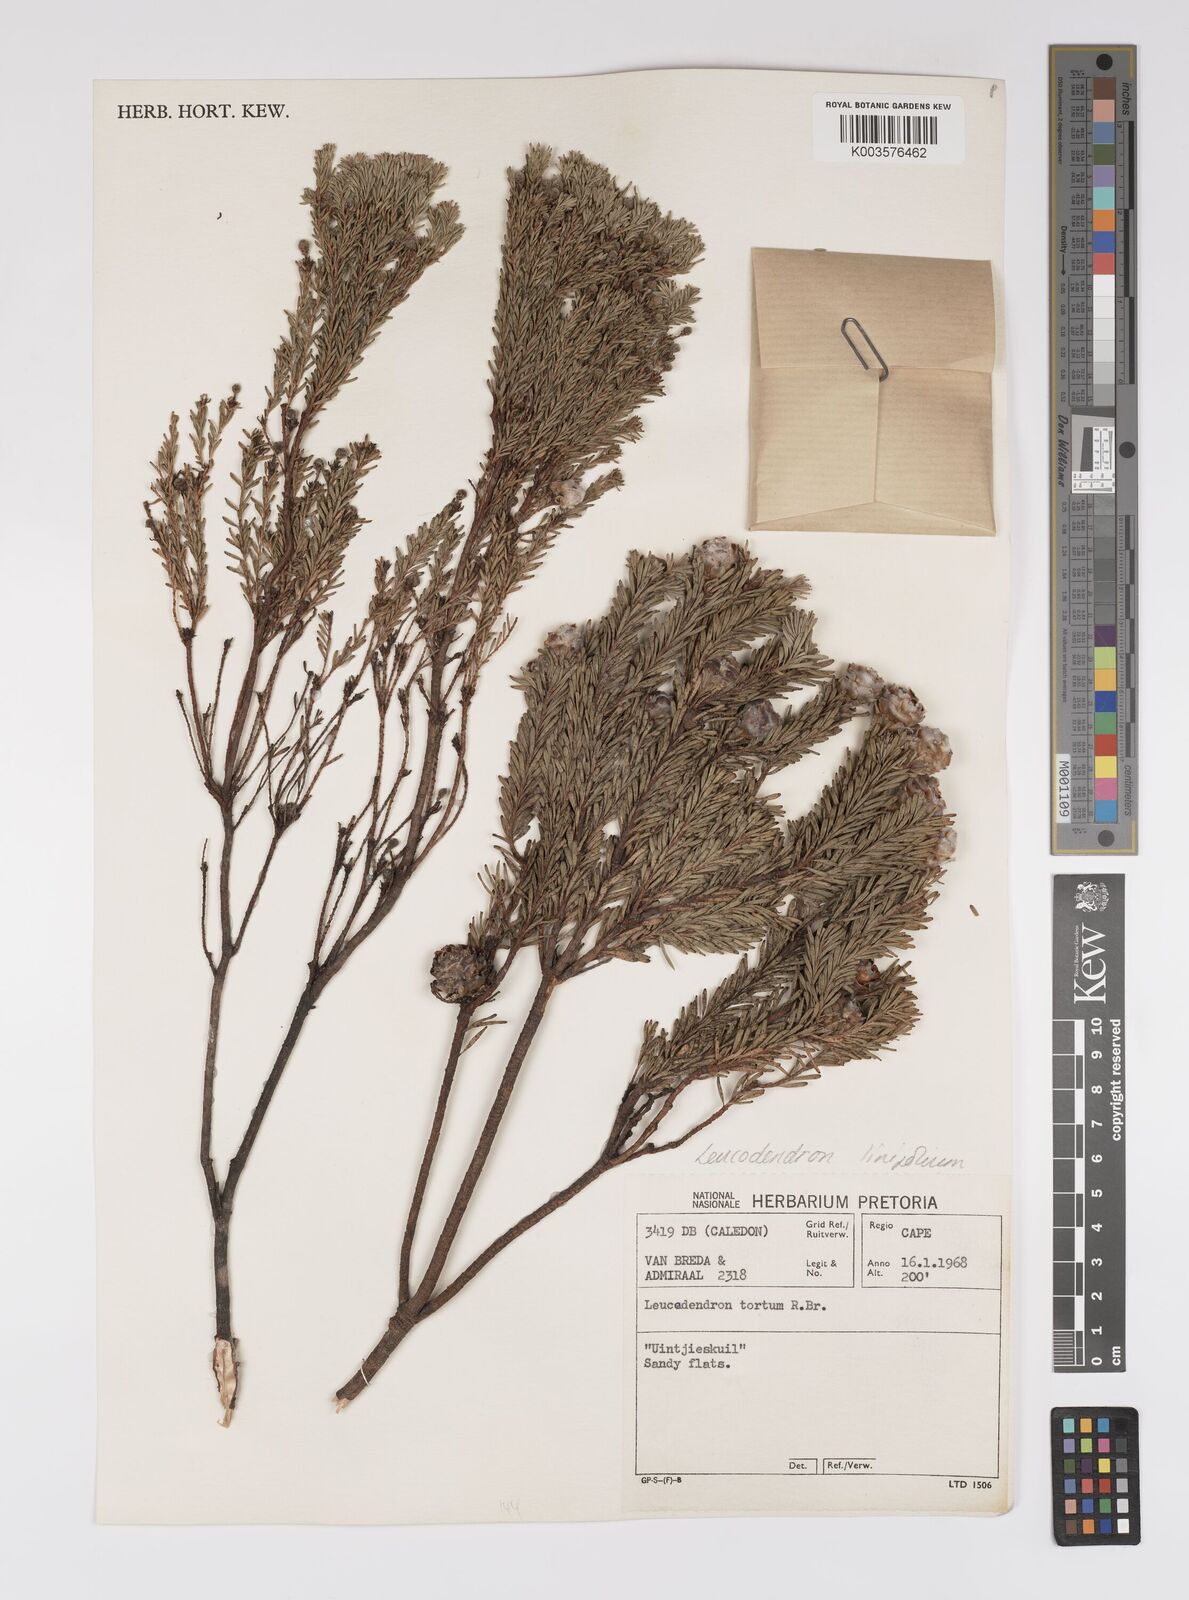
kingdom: Plantae
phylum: Tracheophyta
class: Magnoliopsida
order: Proteales
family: Proteaceae
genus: Leucadendron
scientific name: Leucadendron linifolium
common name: Line-leaf conebush
